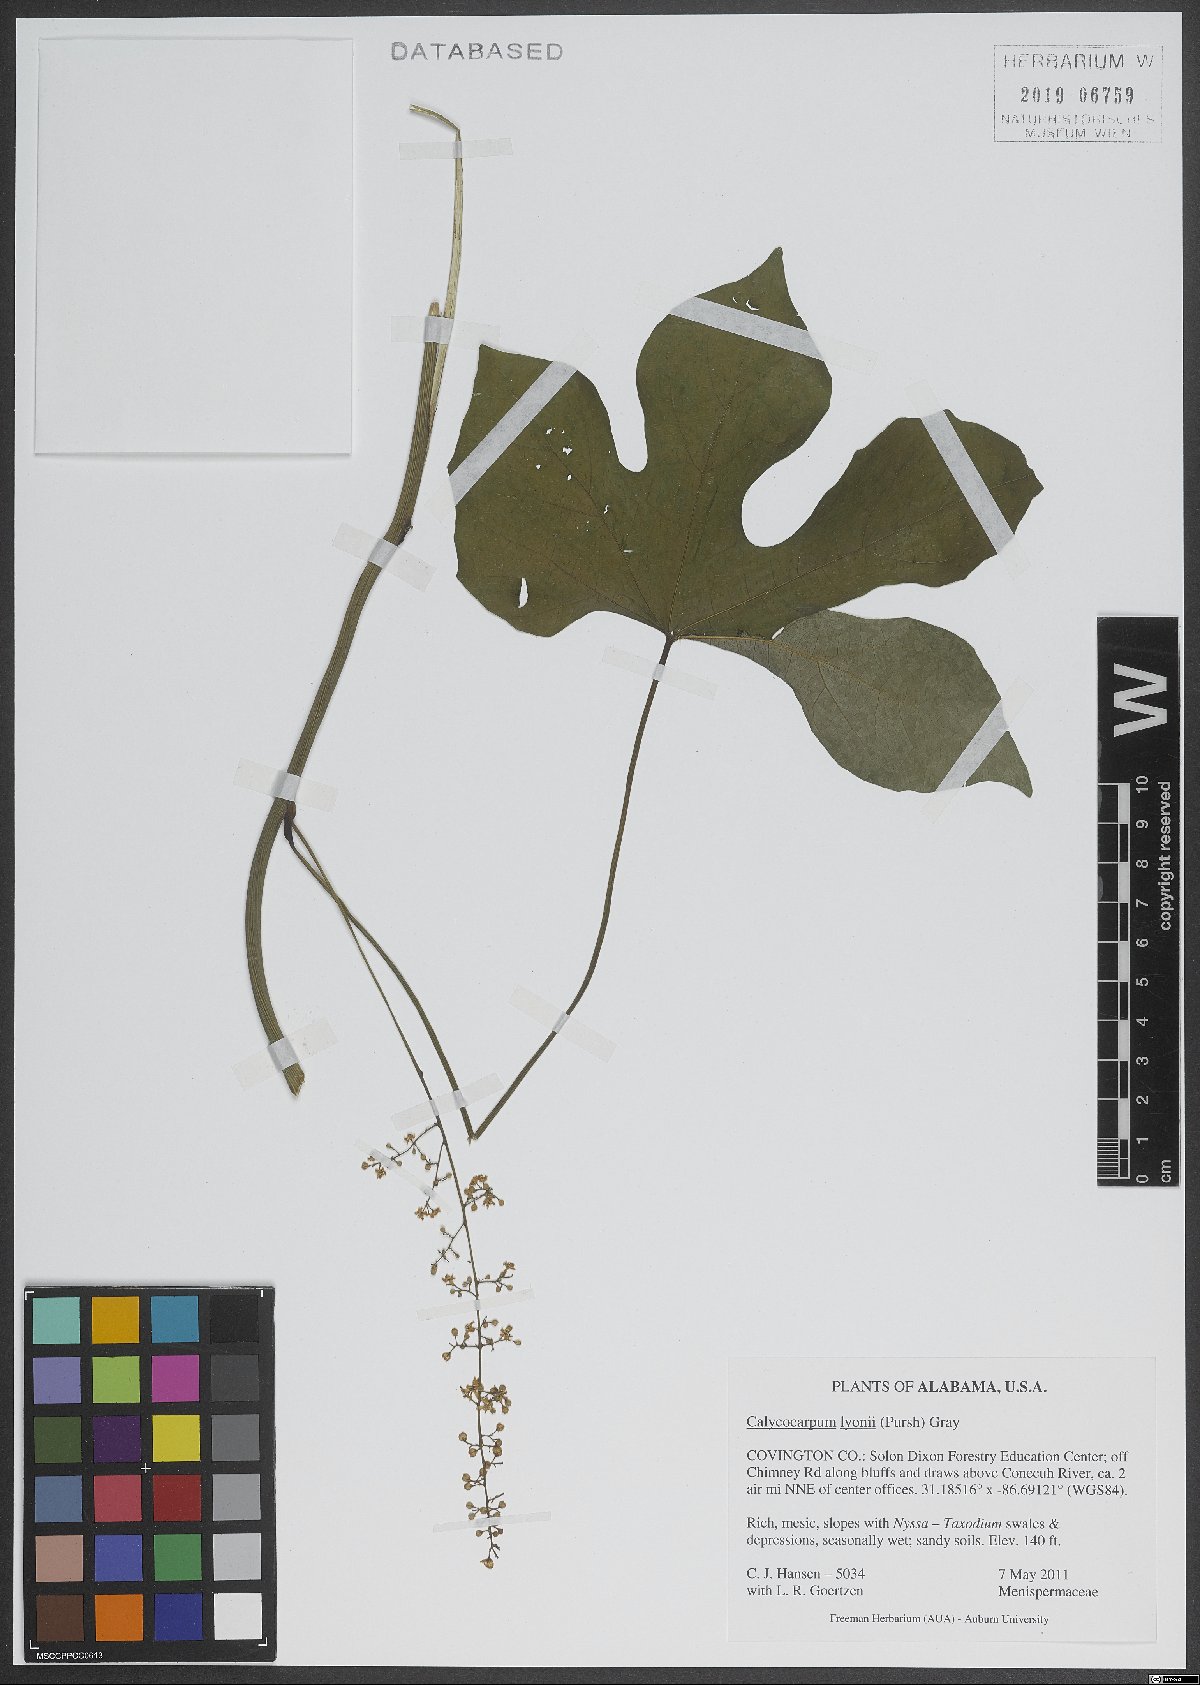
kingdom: Plantae
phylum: Tracheophyta
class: Magnoliopsida
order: Ranunculales
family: Menispermaceae
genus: Calycocarpum
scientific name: Calycocarpum lyonii
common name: Cupseed
